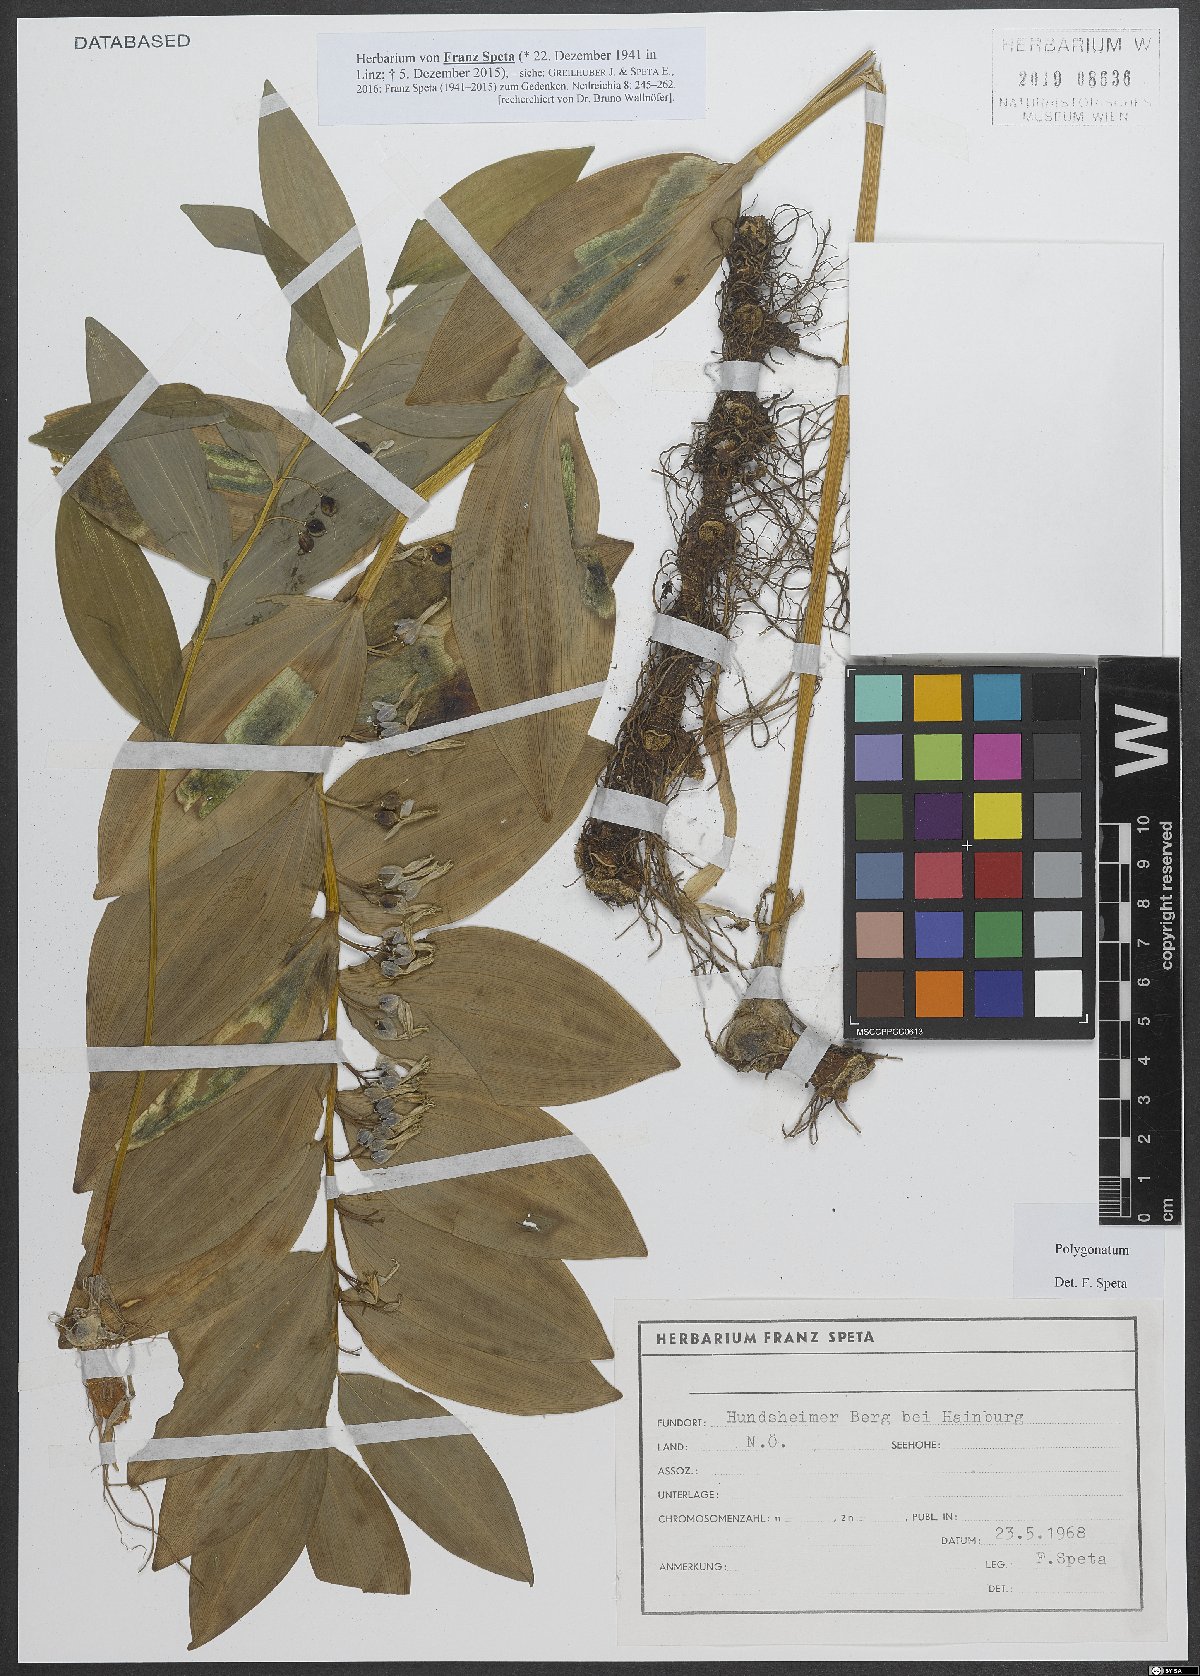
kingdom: Plantae
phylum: Tracheophyta
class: Liliopsida
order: Asparagales
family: Asparagaceae
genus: Polygonatum
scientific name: Polygonatum
